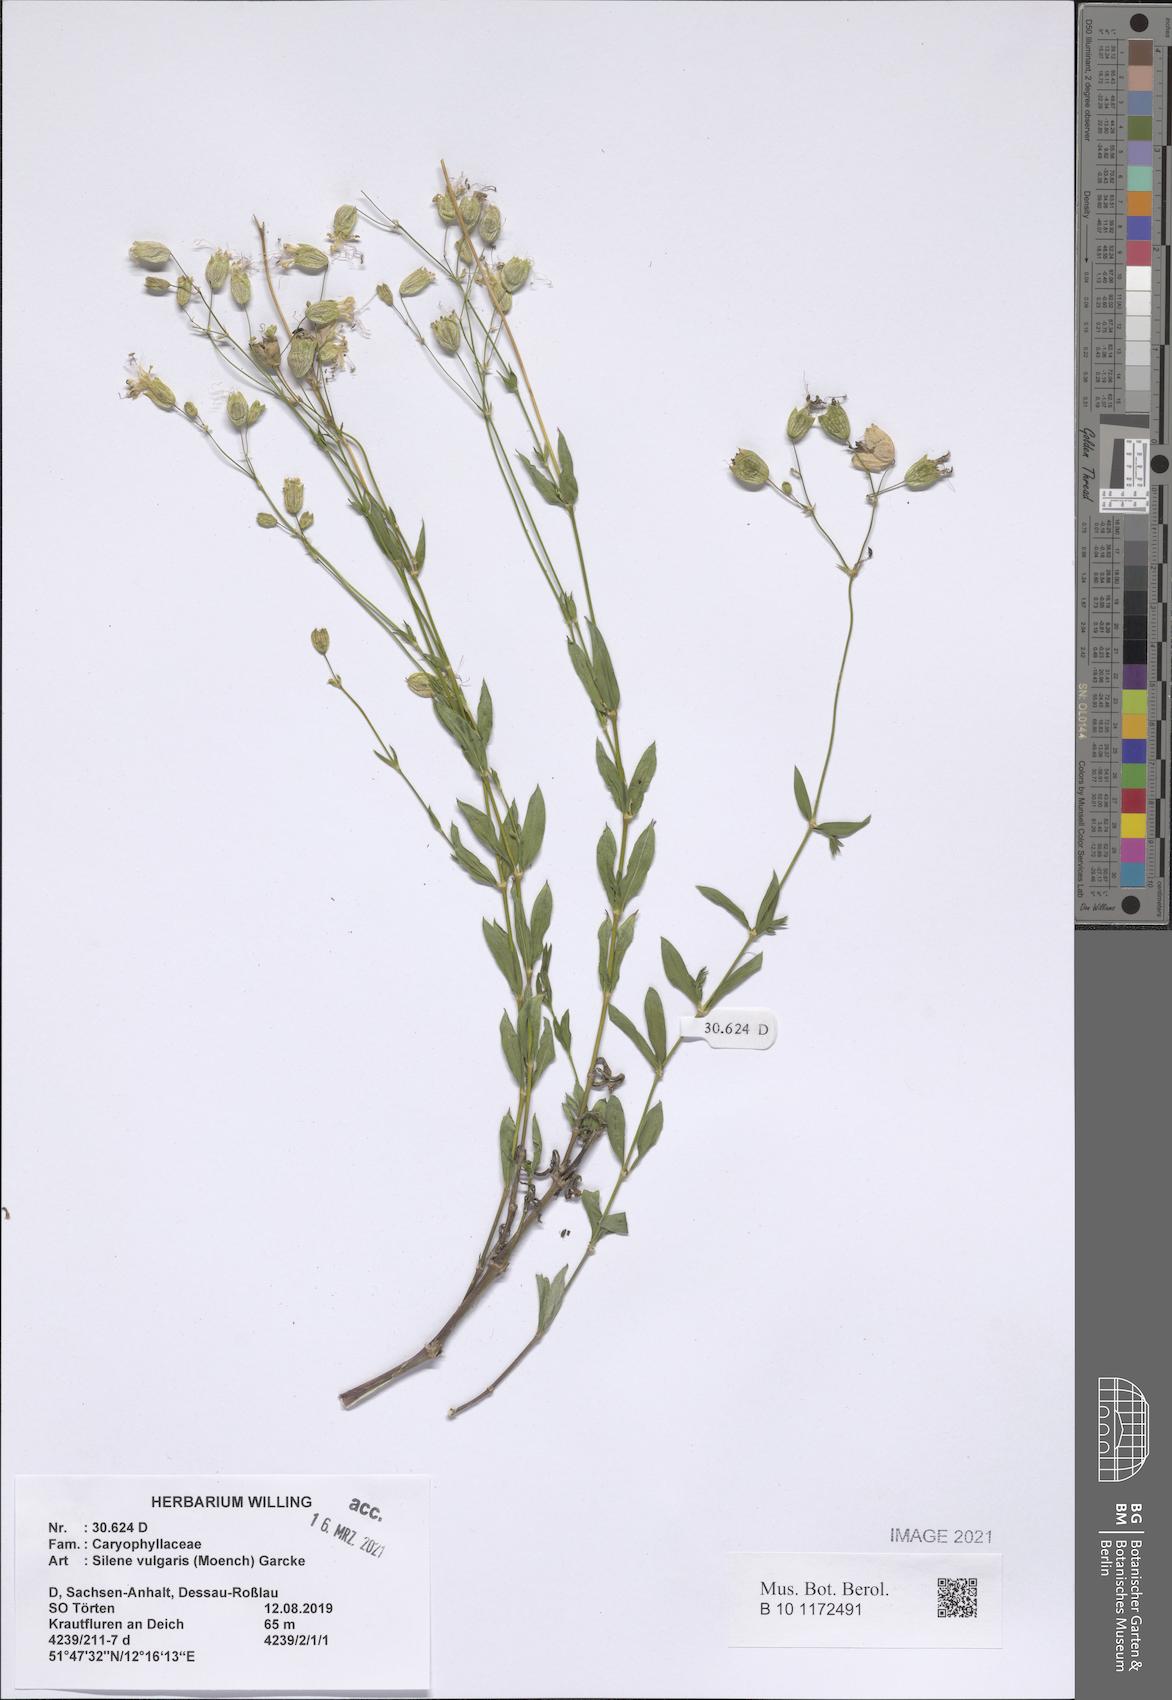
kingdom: Plantae
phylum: Tracheophyta
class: Magnoliopsida
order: Caryophyllales
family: Caryophyllaceae
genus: Silene
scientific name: Silene vulgaris
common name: Bladder campion
